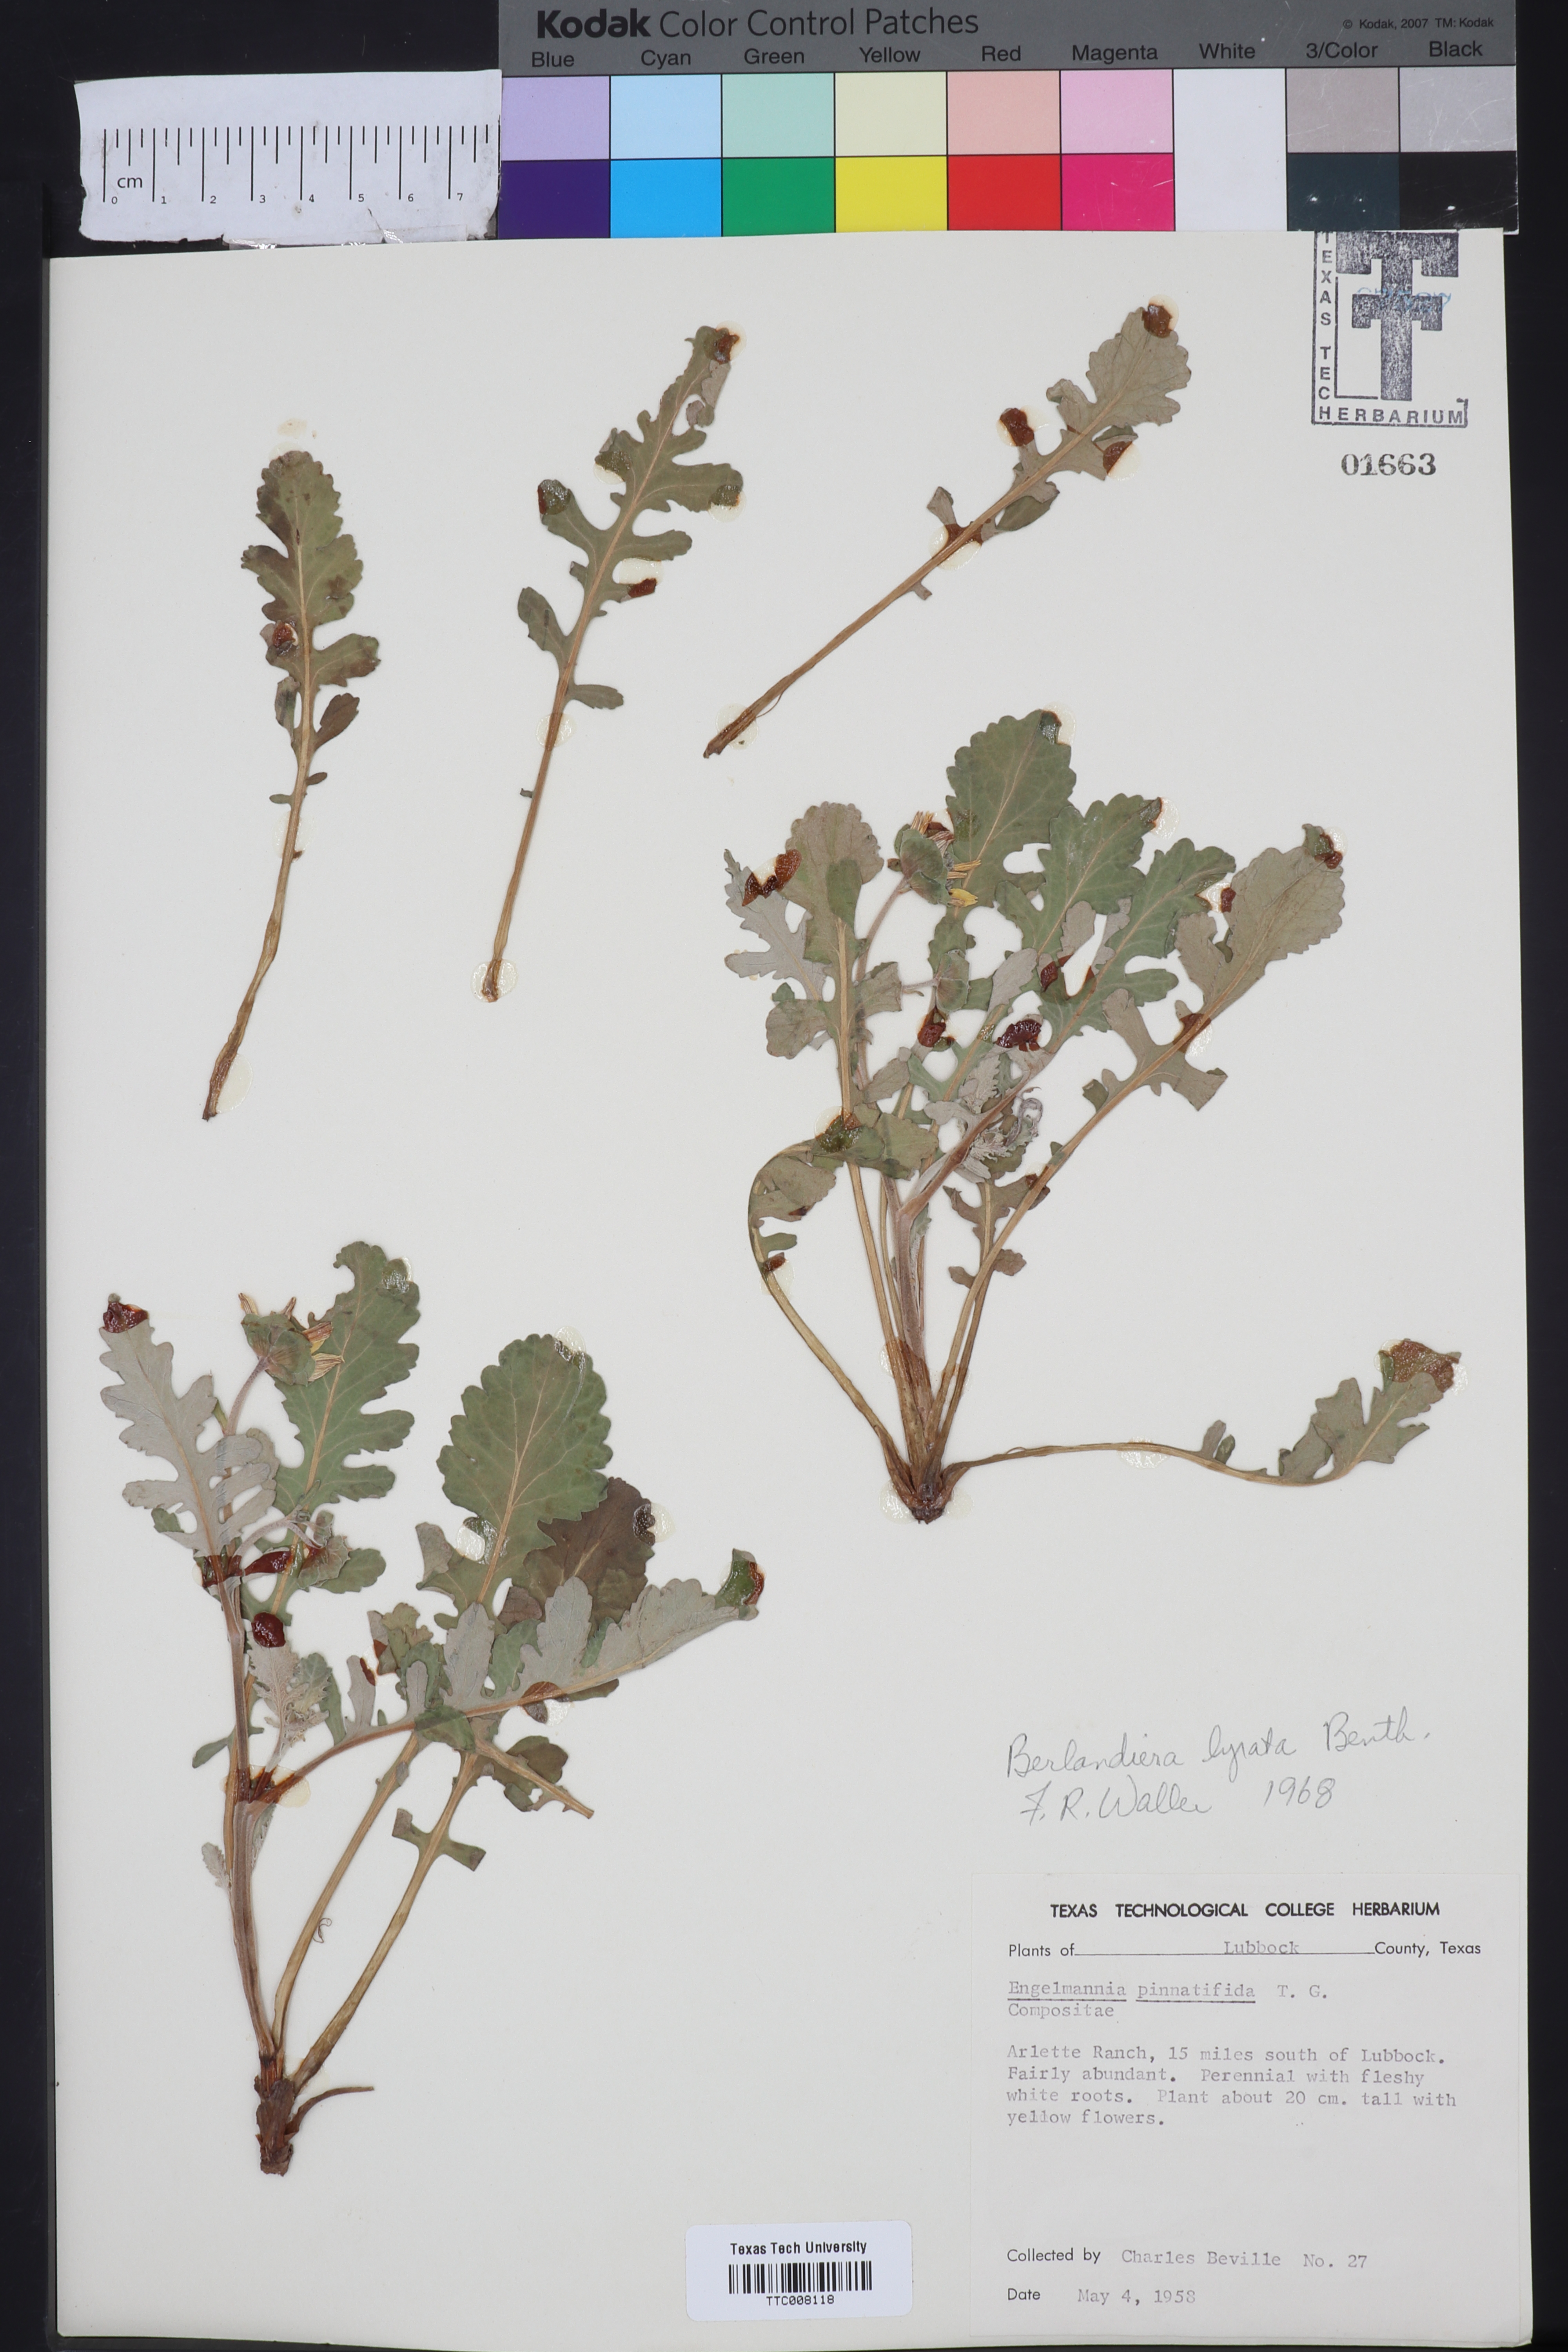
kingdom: Plantae
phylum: Tracheophyta
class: Magnoliopsida
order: Asterales
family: Asteraceae
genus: Berlandiera
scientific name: Berlandiera lyrata
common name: Chocolate-flower
